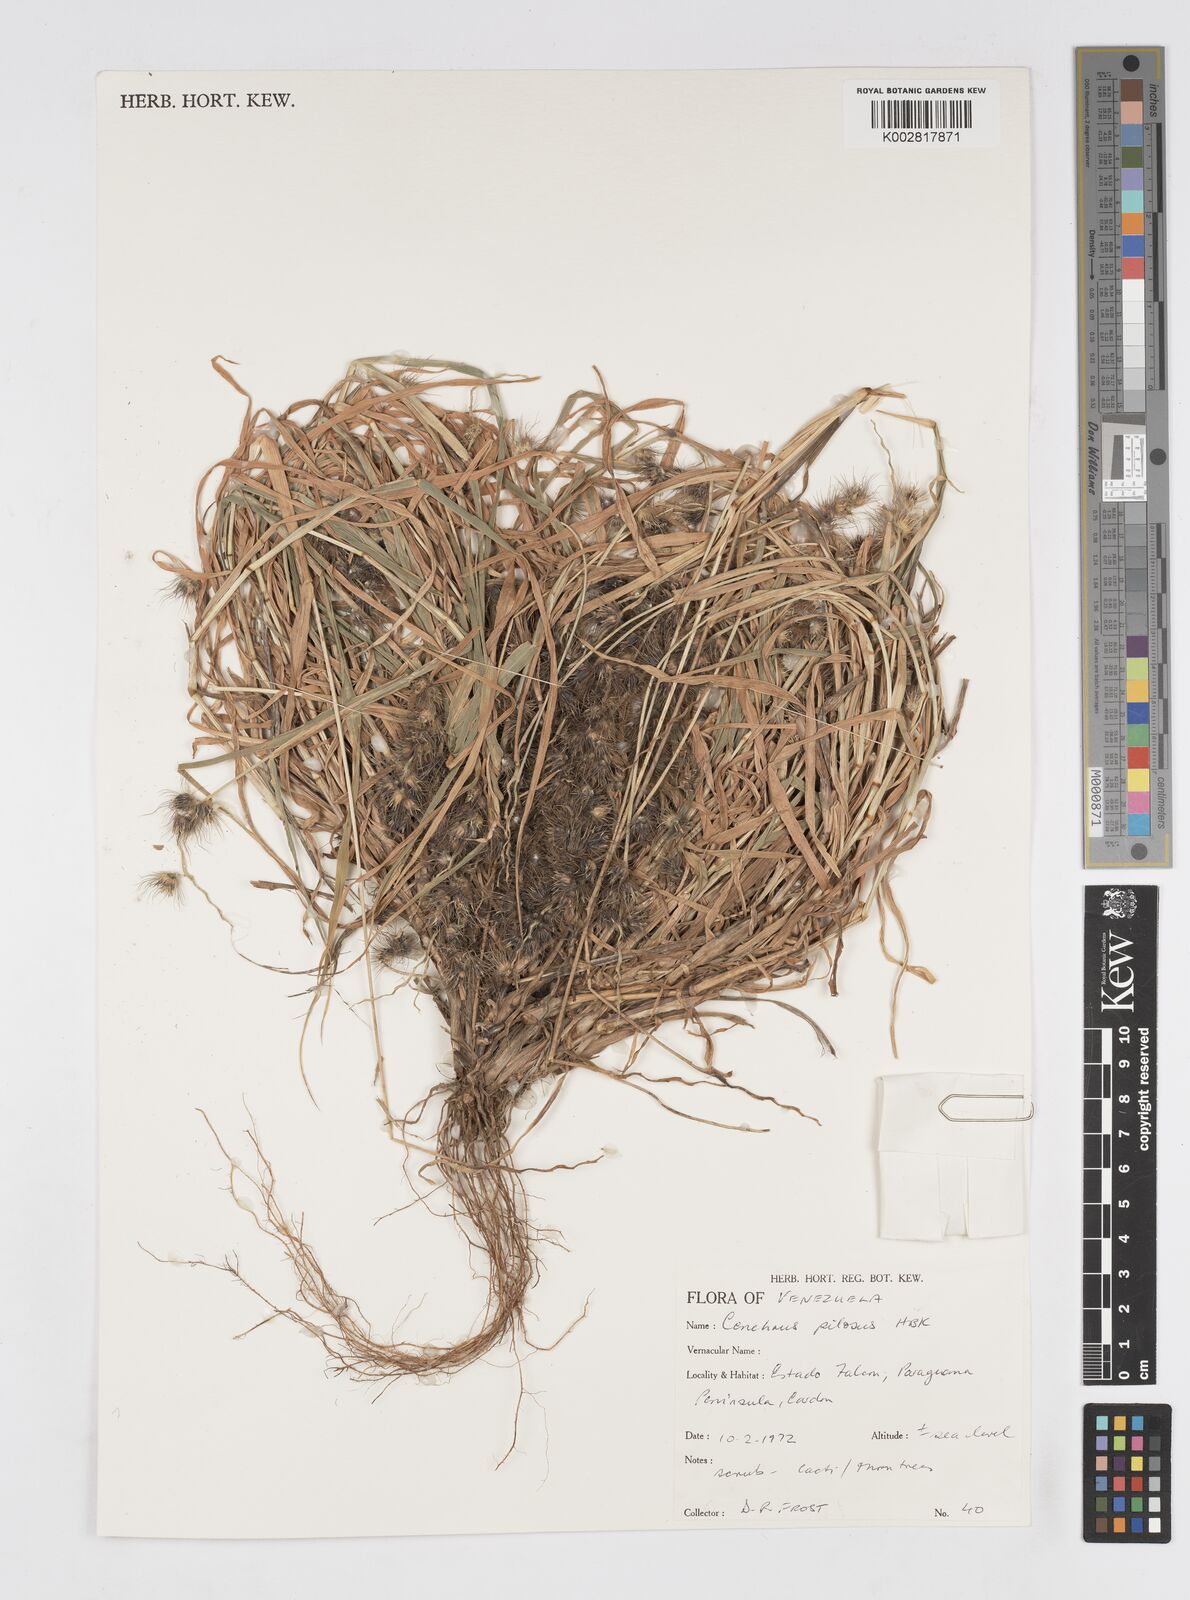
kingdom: Plantae
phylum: Tracheophyta
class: Liliopsida
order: Poales
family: Poaceae
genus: Cenchrus
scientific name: Cenchrus pilosus
